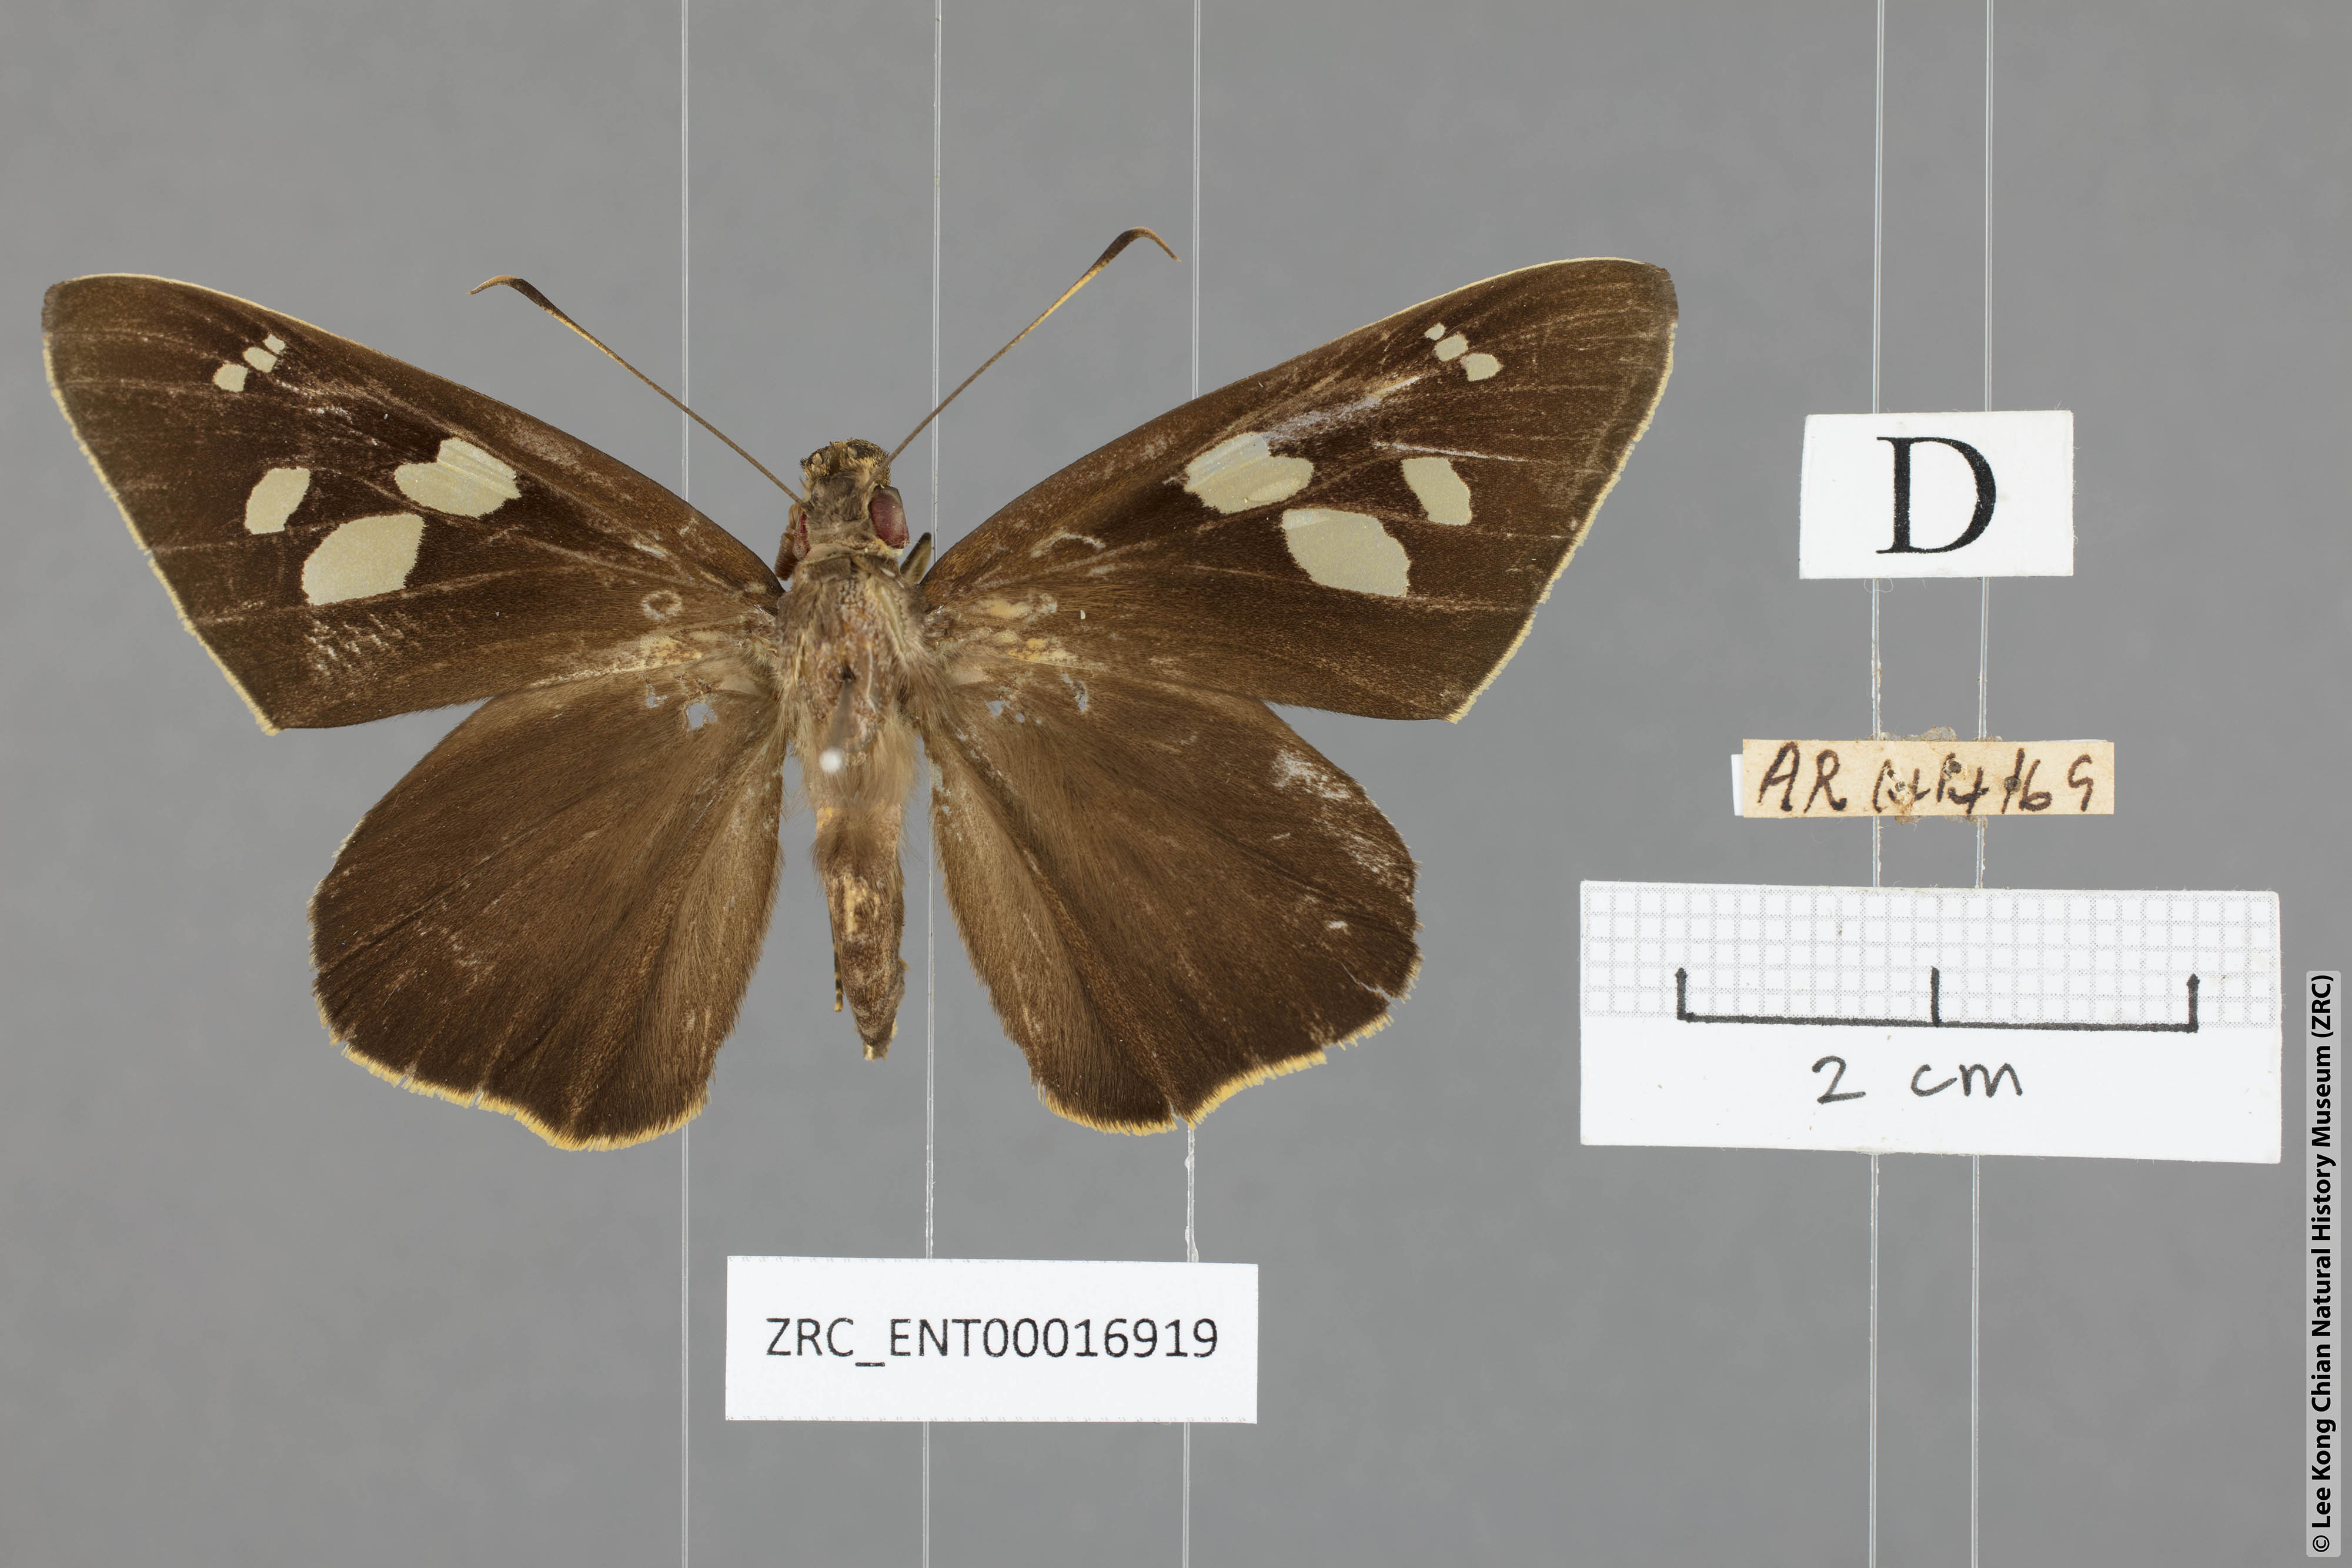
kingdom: Animalia
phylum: Arthropoda
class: Insecta
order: Lepidoptera
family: Hesperiidae
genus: Erionota
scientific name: Erionota sybirita
